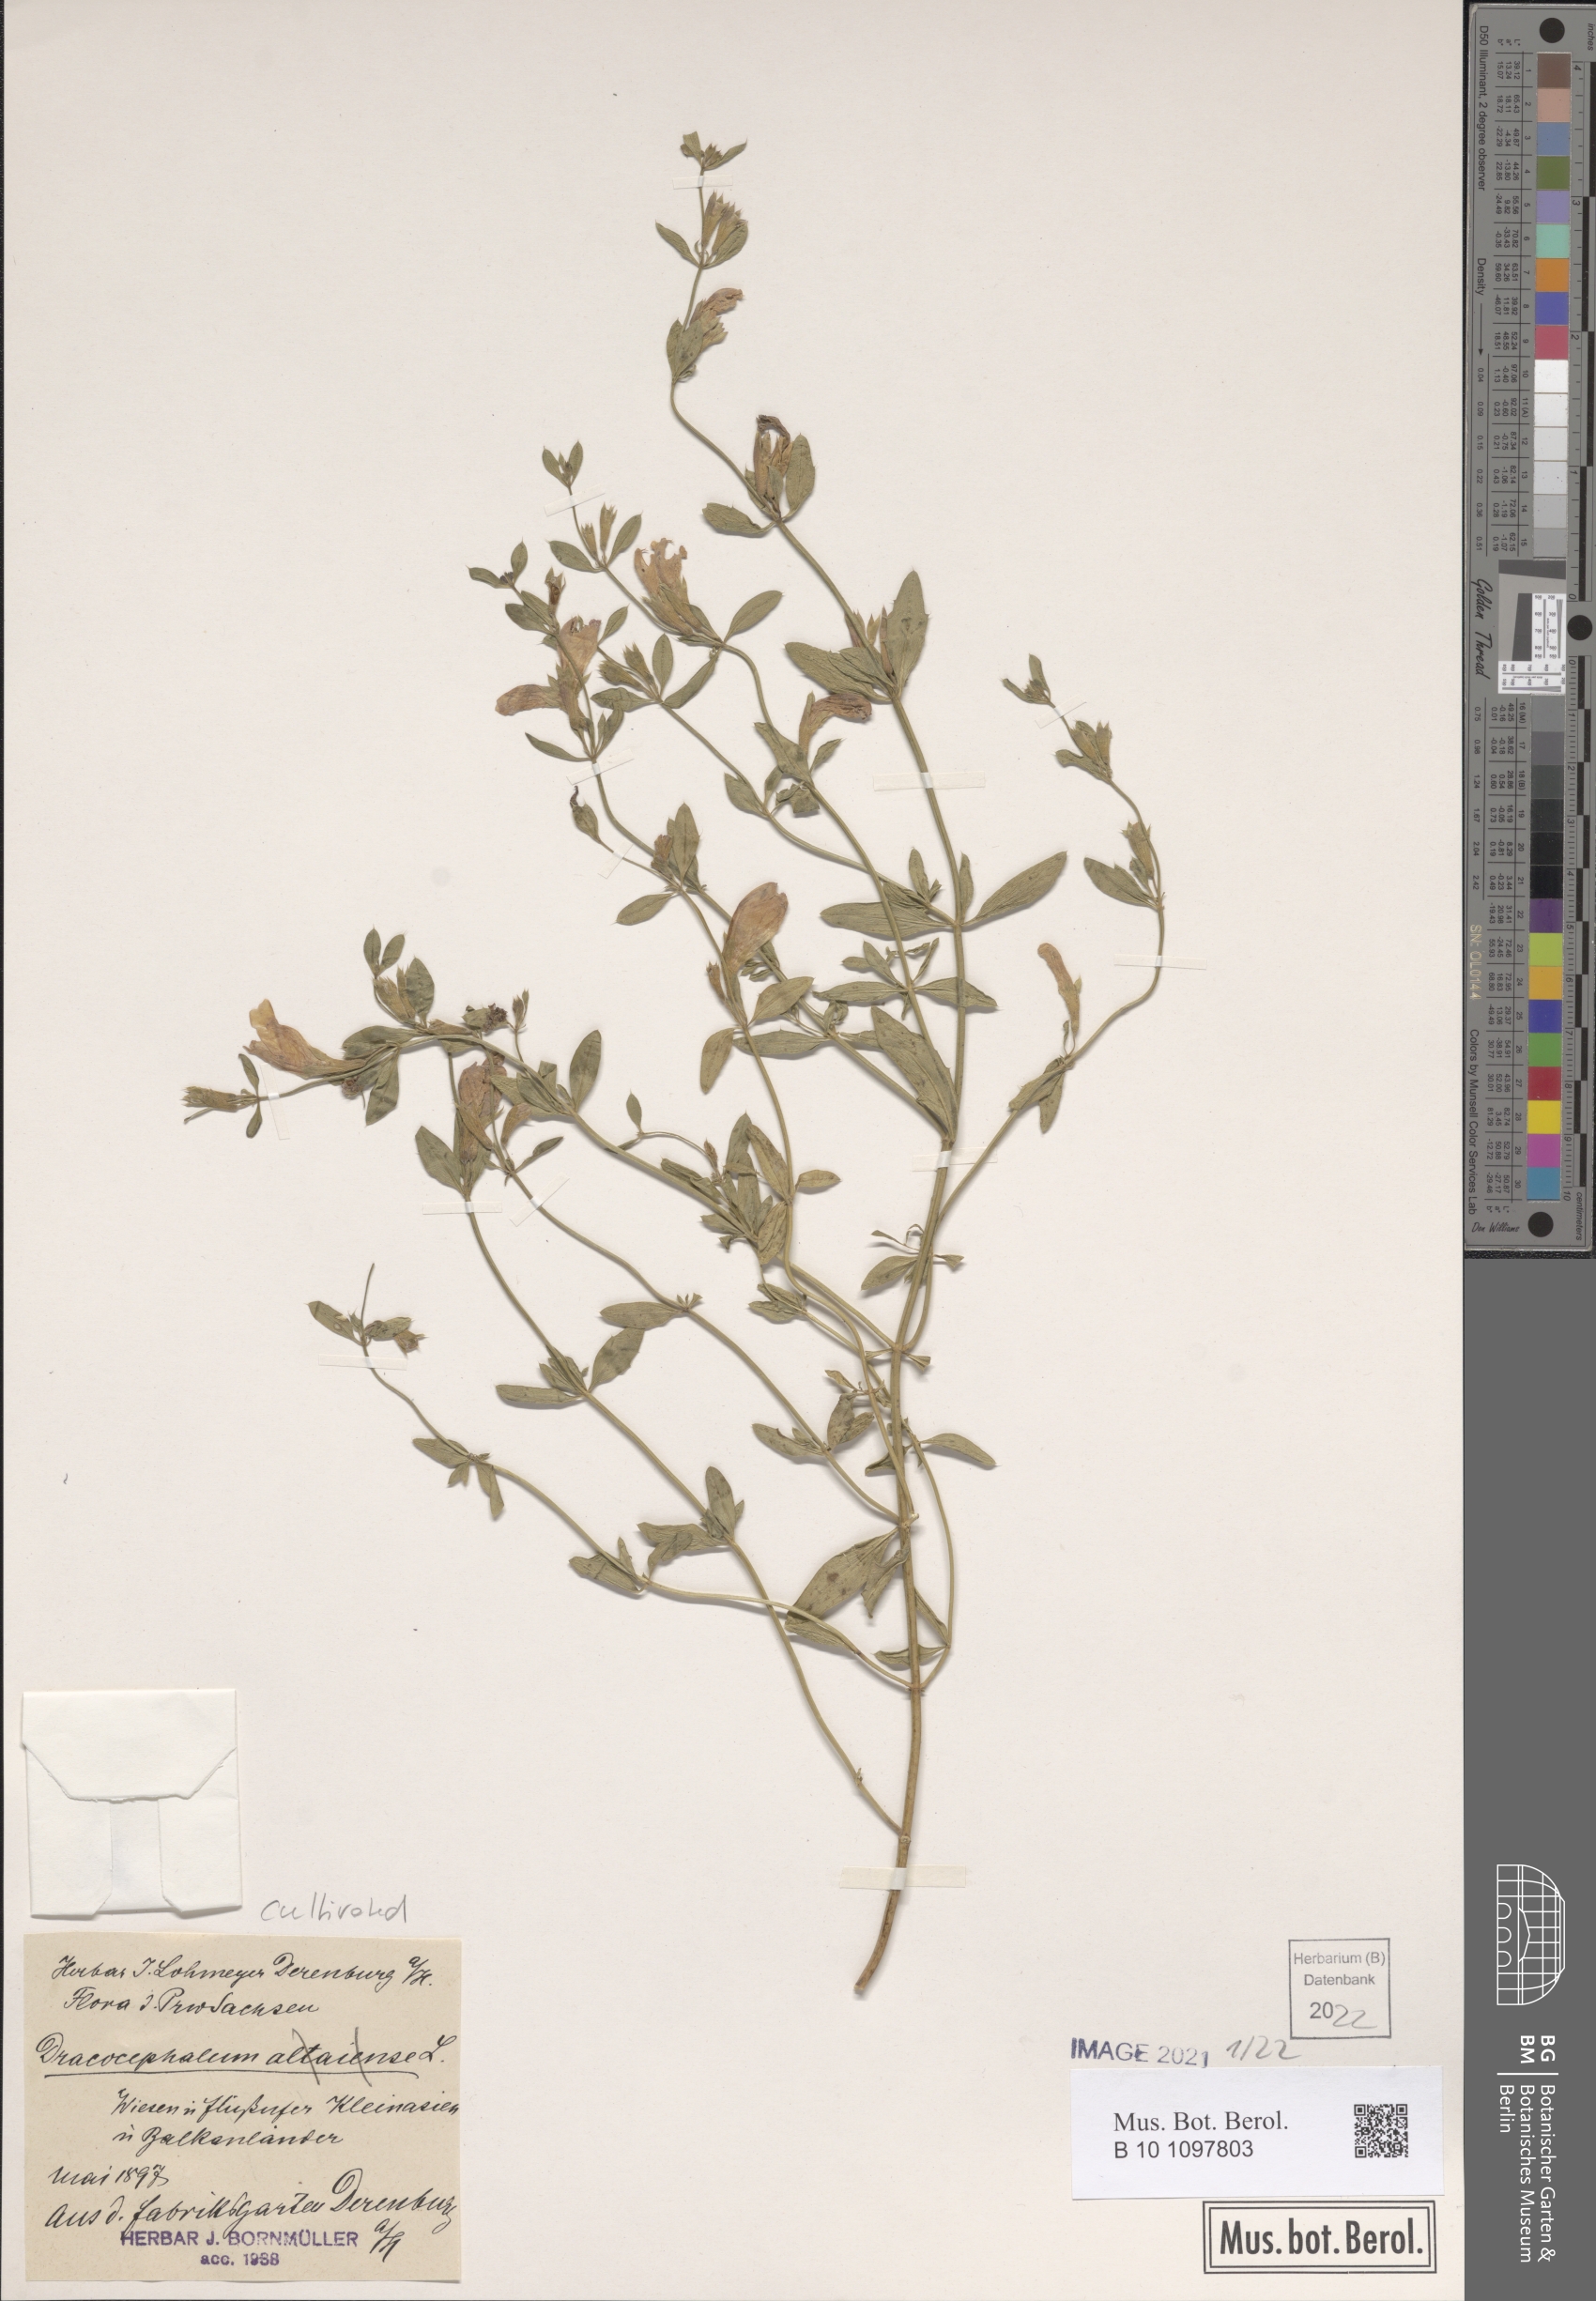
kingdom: Plantae
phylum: Tracheophyta
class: Magnoliopsida
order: Lamiales
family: Lamiaceae
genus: Dracocephalum
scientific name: Dracocephalum
